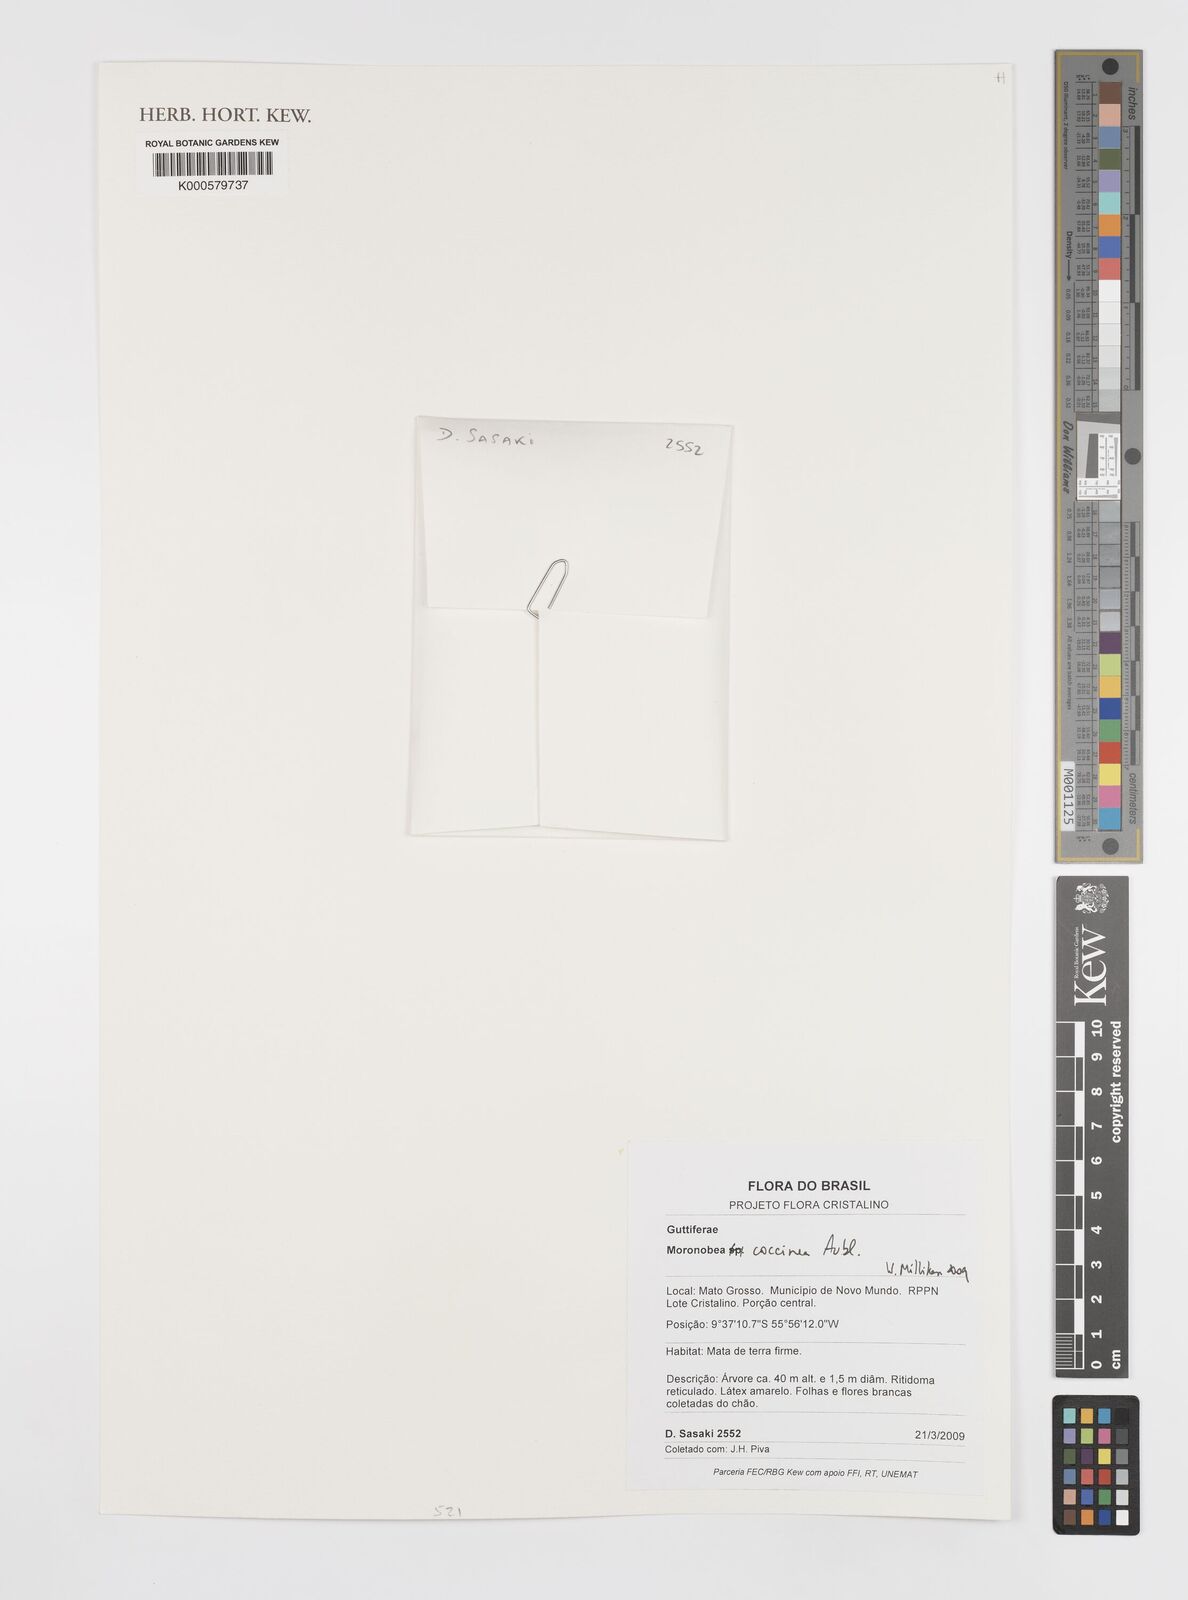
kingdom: Plantae
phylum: Tracheophyta
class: Magnoliopsida
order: Malpighiales
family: Clusiaceae
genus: Moronobea
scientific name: Moronobea coccinea
